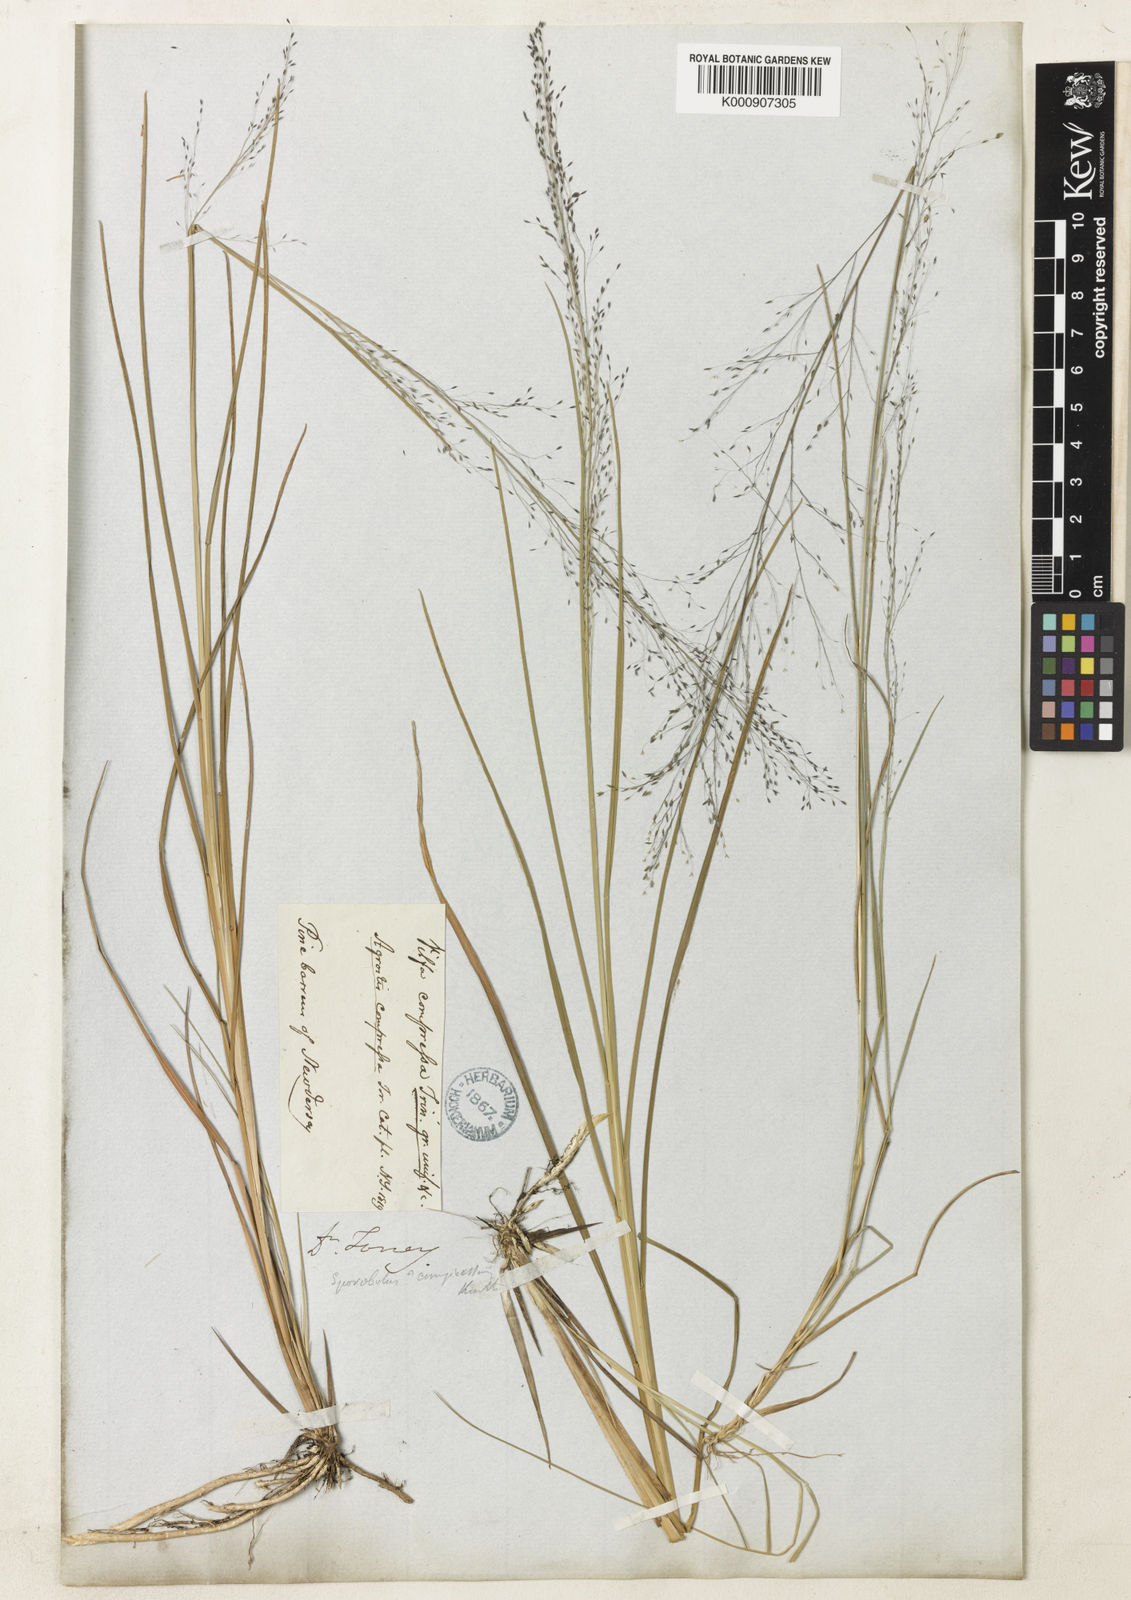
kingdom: Plantae
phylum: Tracheophyta
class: Liliopsida
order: Poales
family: Poaceae
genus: Muhlenbergia
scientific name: Muhlenbergia uniflora
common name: Bog muhly
